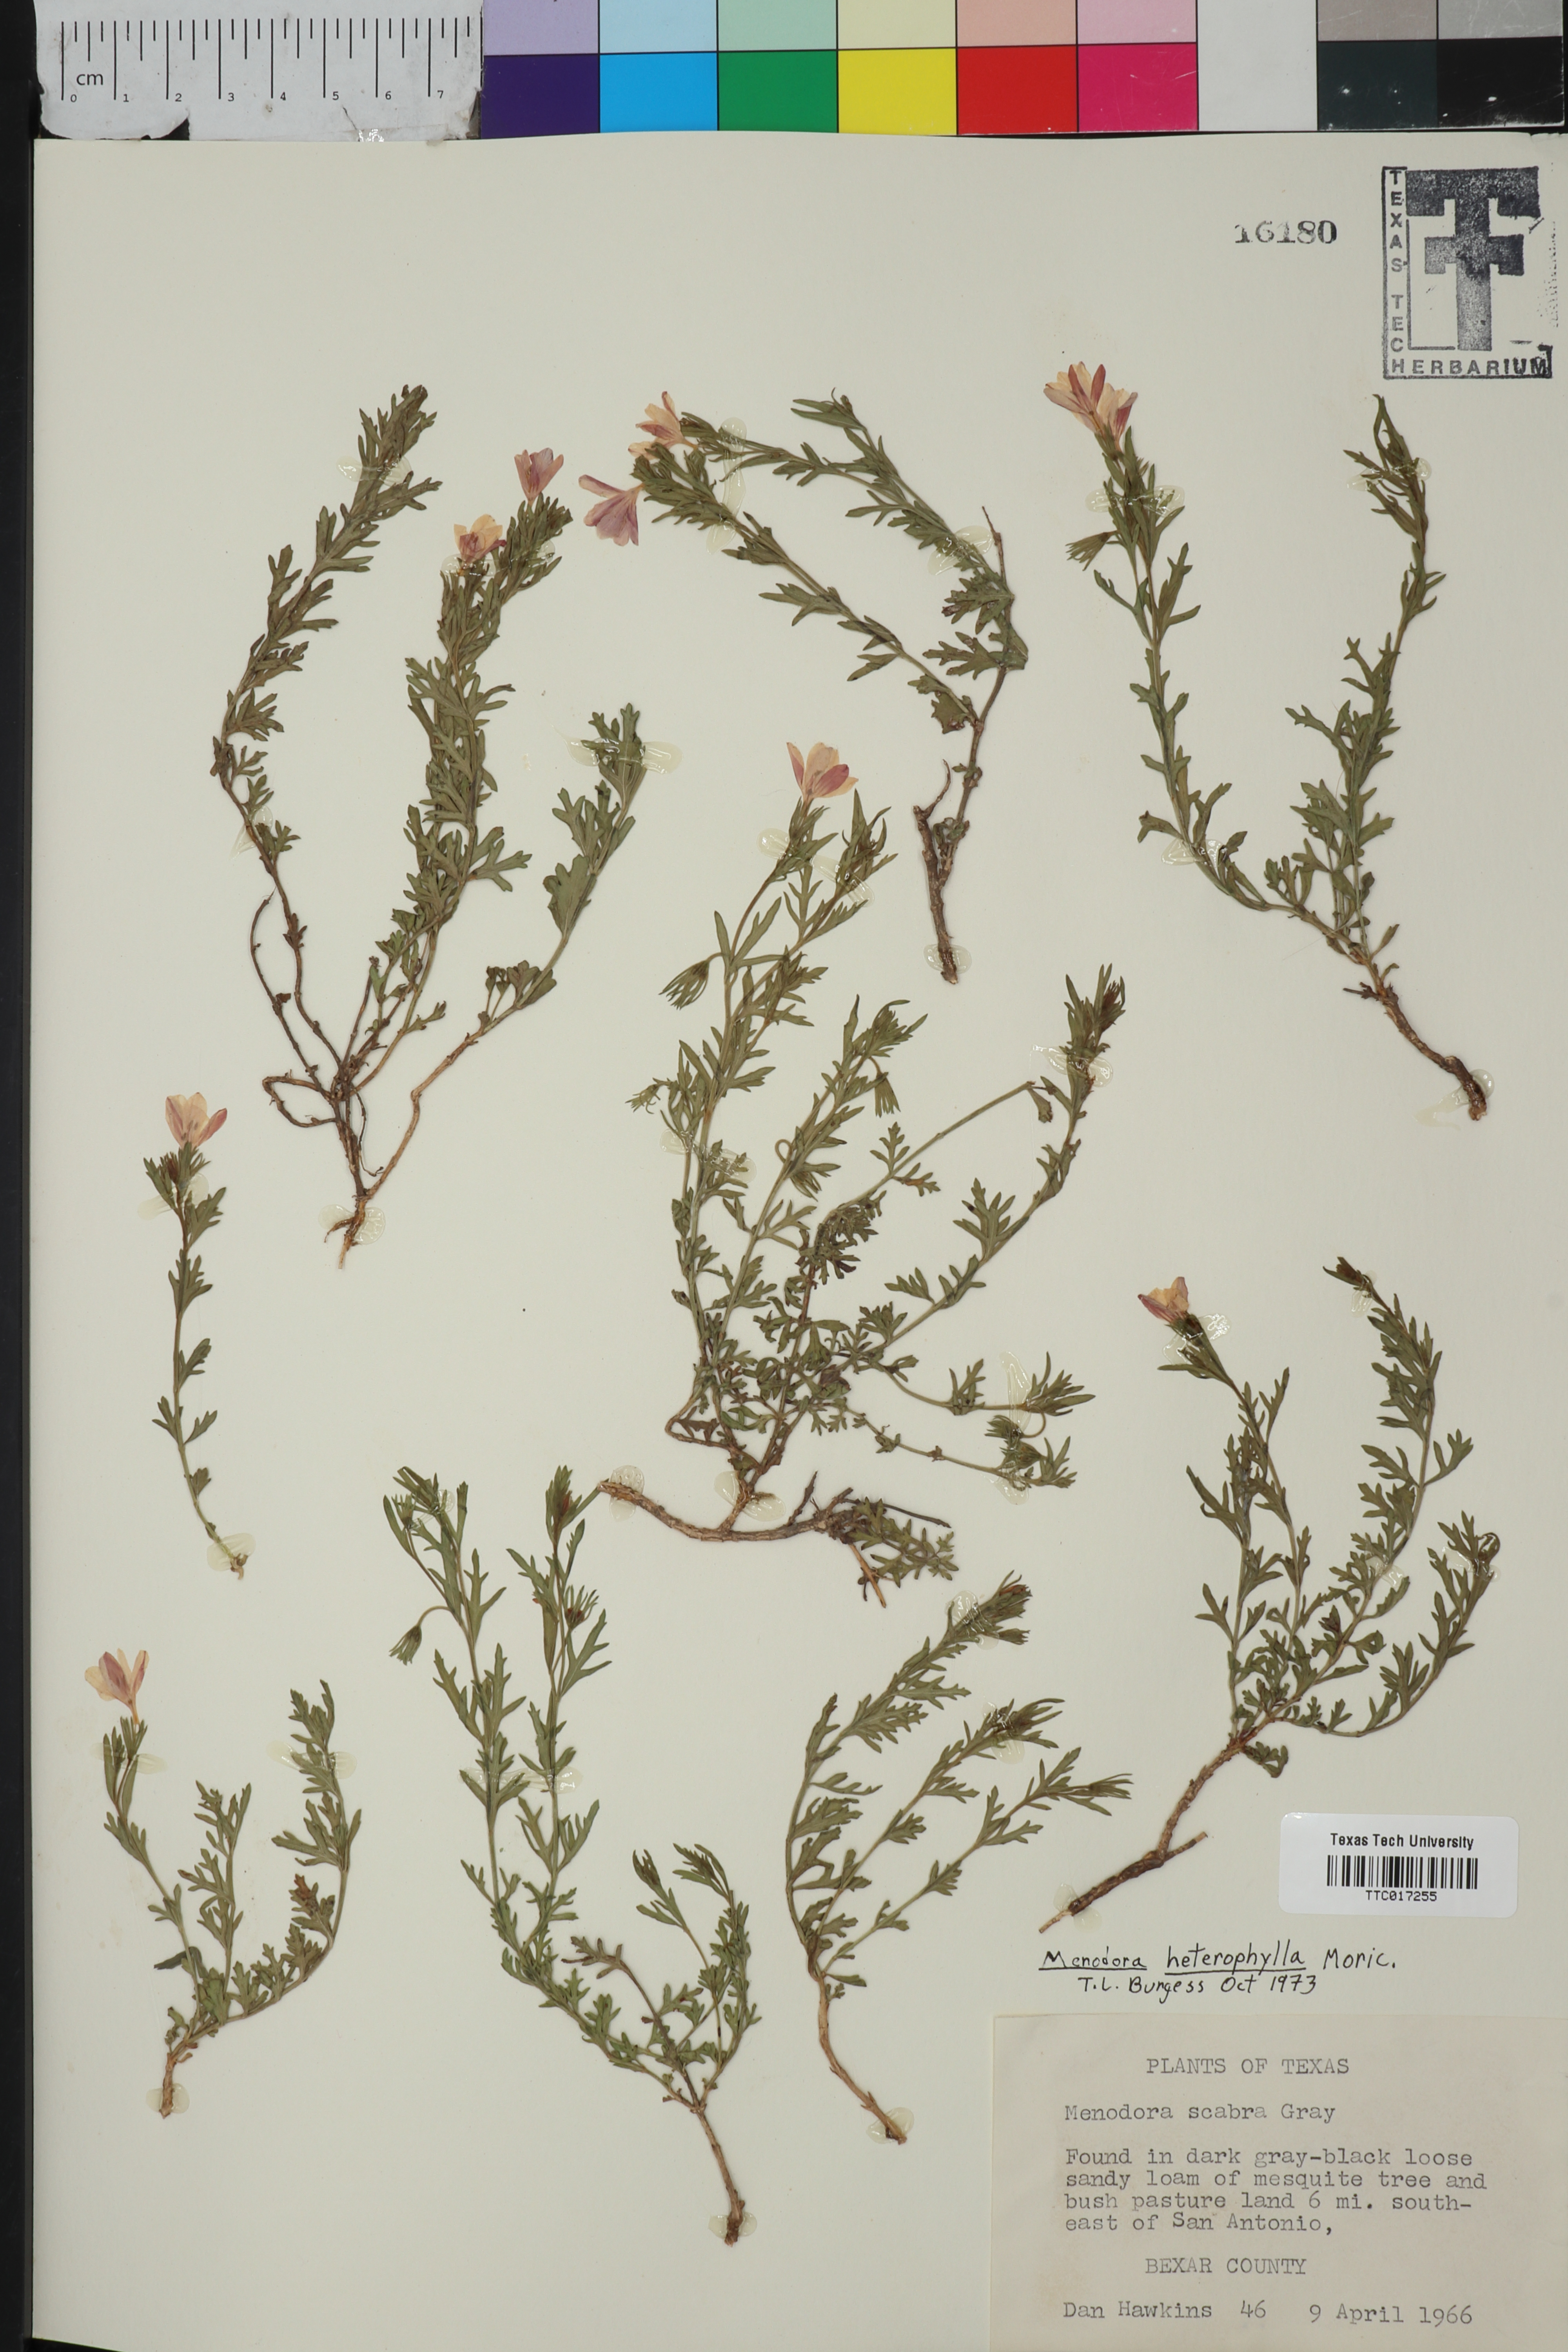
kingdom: Plantae
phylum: Tracheophyta
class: Magnoliopsida
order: Lamiales
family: Oleaceae
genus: Menodora
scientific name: Menodora heterophylla
